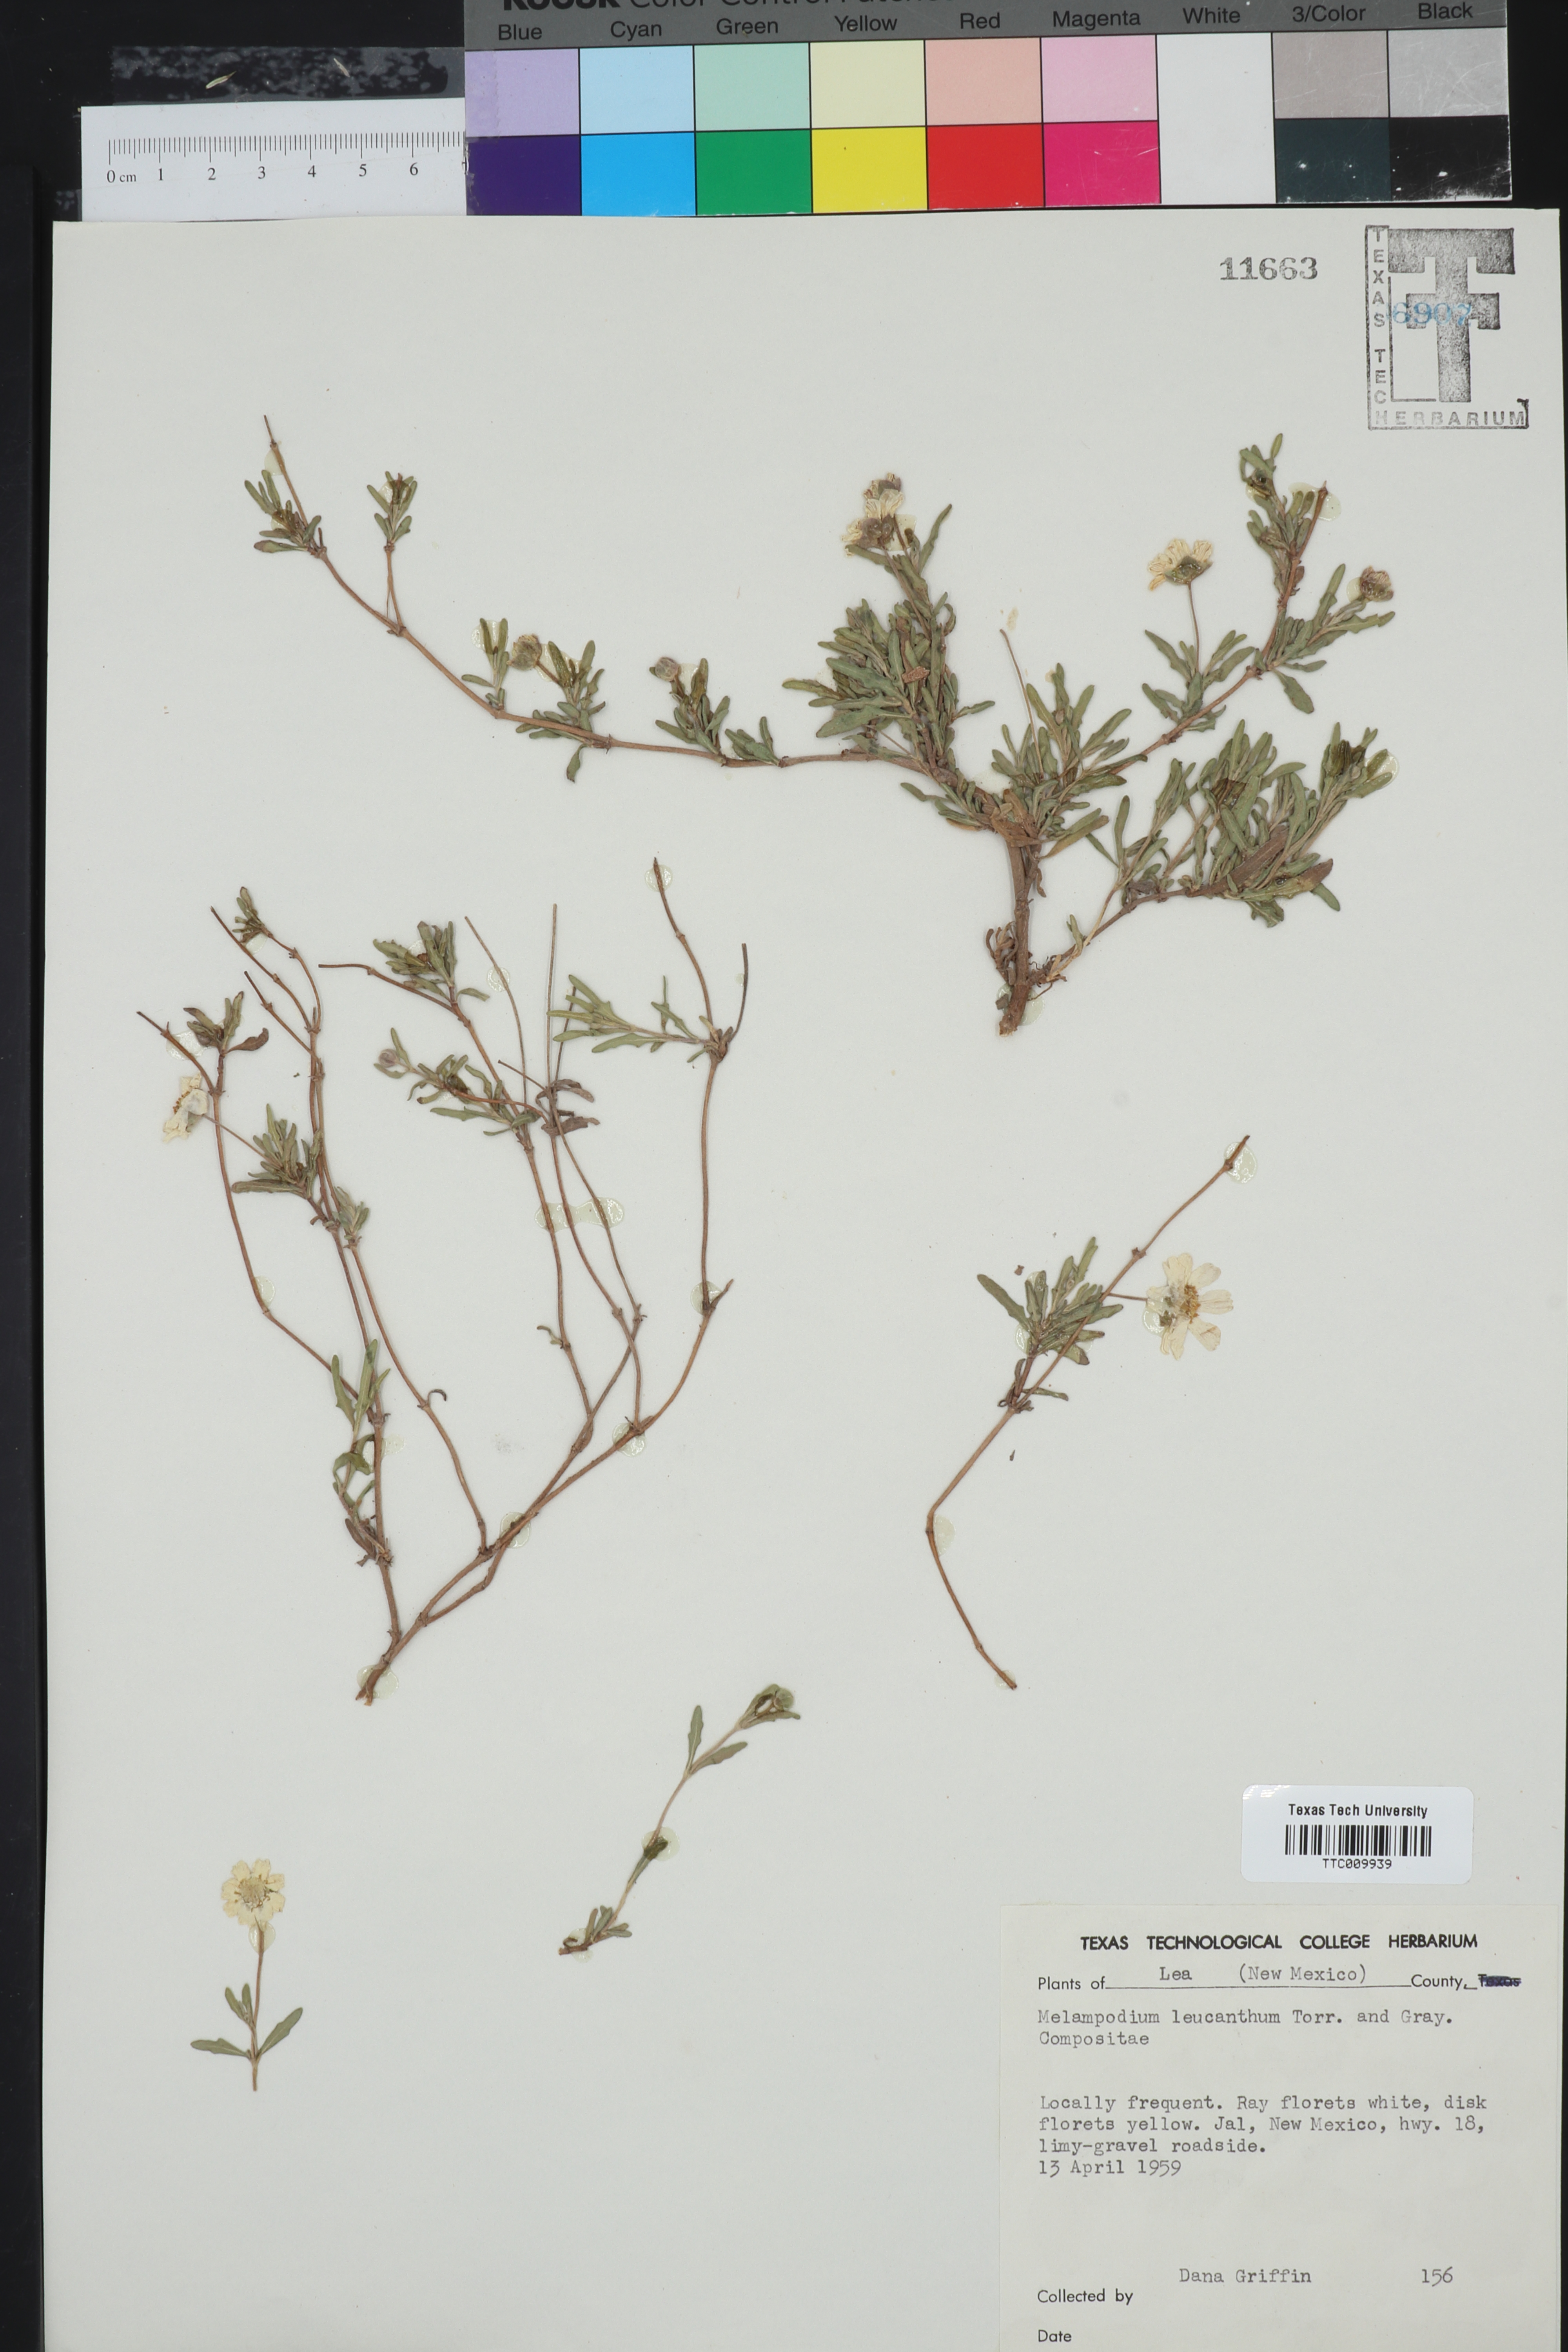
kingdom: Plantae
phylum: Tracheophyta
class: Magnoliopsida
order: Asterales
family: Asteraceae
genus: Melampodium
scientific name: Melampodium leucanthum
